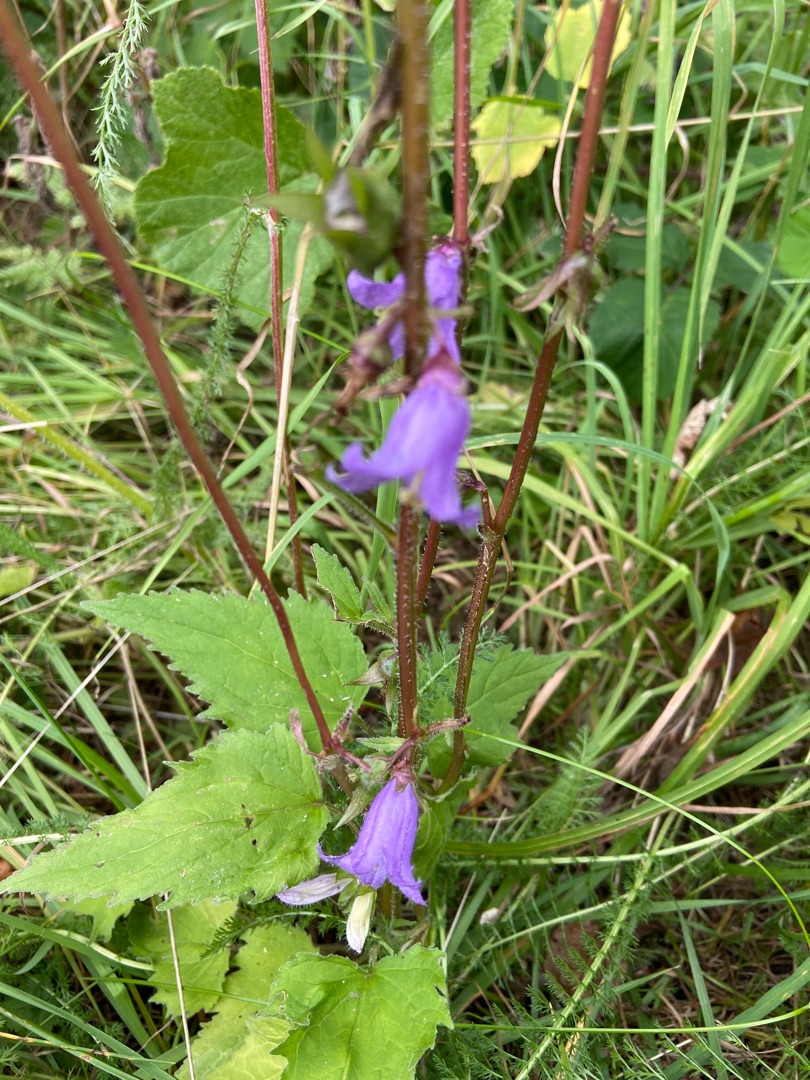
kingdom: Plantae
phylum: Tracheophyta
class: Magnoliopsida
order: Asterales
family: Campanulaceae
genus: Campanula
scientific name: Campanula trachelium
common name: Nælde-klokke
